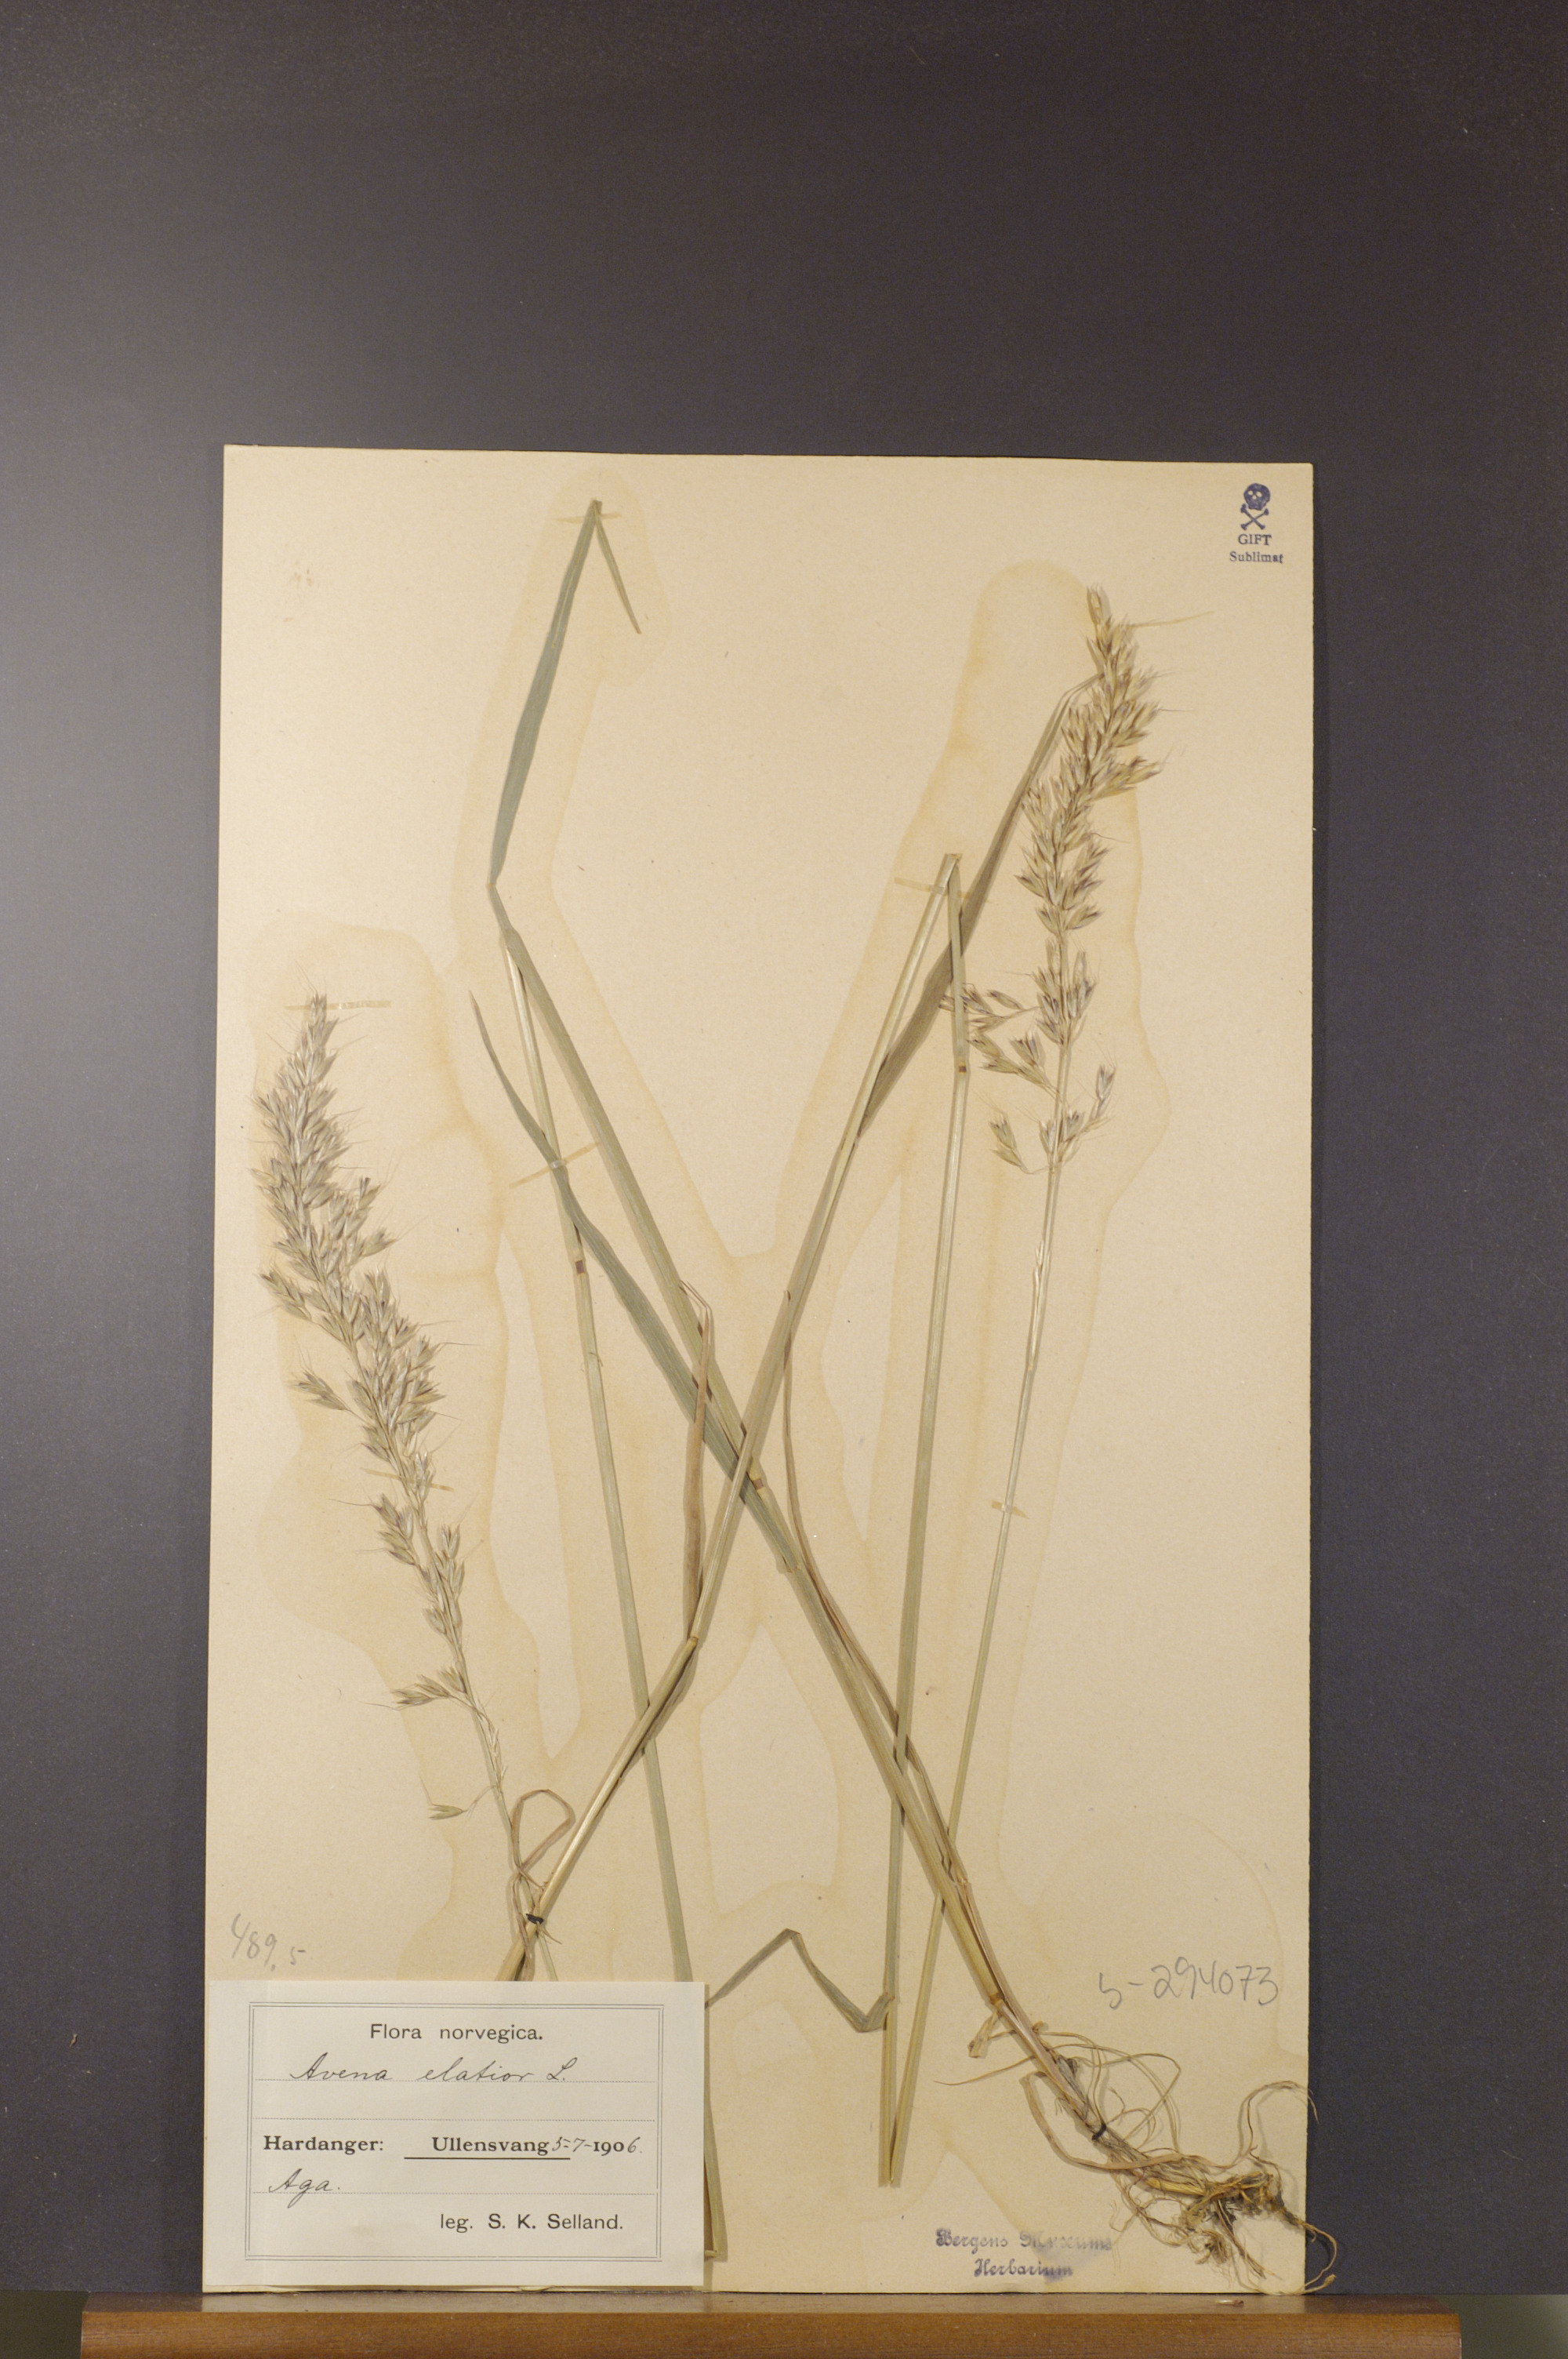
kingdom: Plantae
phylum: Tracheophyta
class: Liliopsida
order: Poales
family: Poaceae
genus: Arrhenatherum
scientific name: Arrhenatherum elatius
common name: Tall oatgrass
